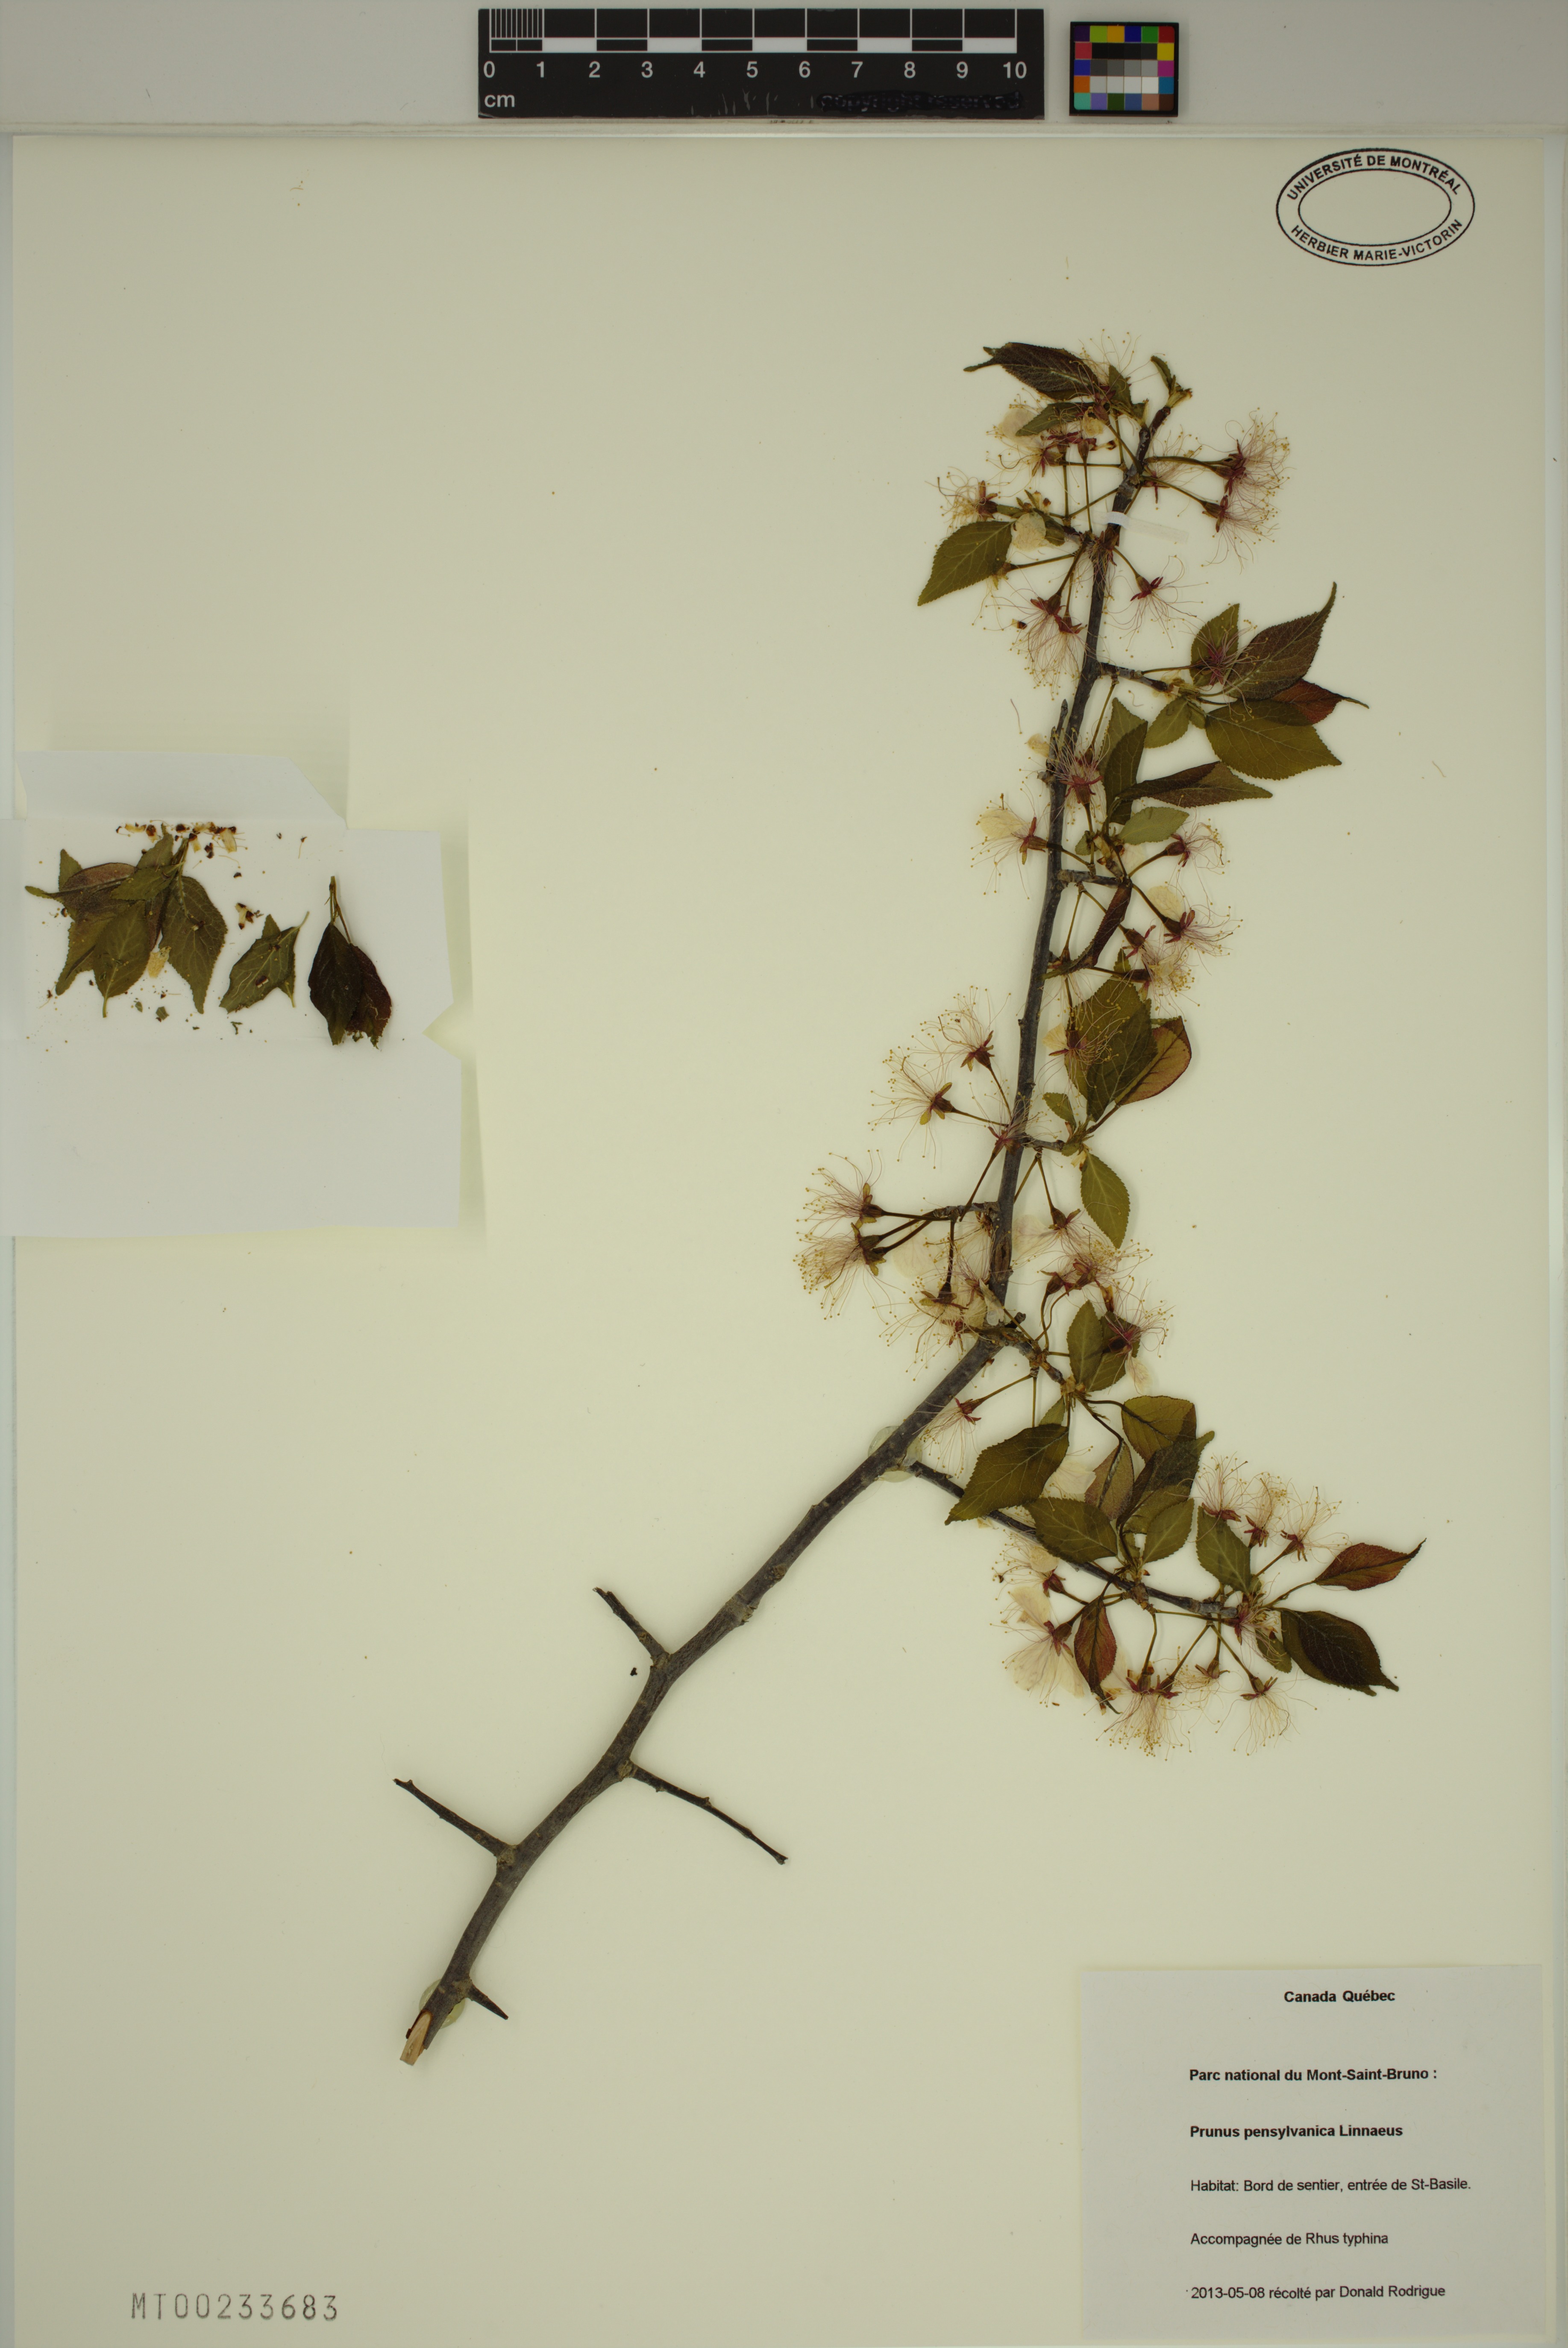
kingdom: Plantae
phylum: Tracheophyta
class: Magnoliopsida
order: Rosales
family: Rosaceae
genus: Prunus
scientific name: Prunus pensylvanica
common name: Pin cherry
